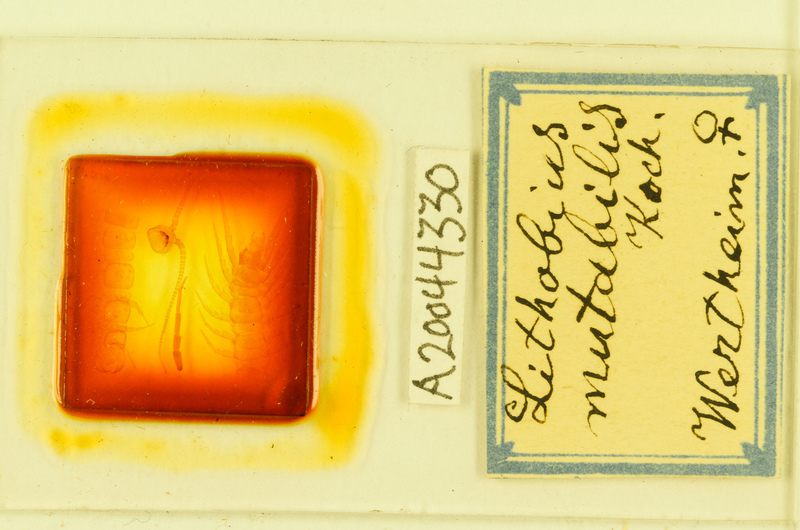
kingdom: Animalia
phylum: Arthropoda
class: Chilopoda
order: Lithobiomorpha
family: Lithobiidae
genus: Lithobius
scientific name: Lithobius mutabilis
